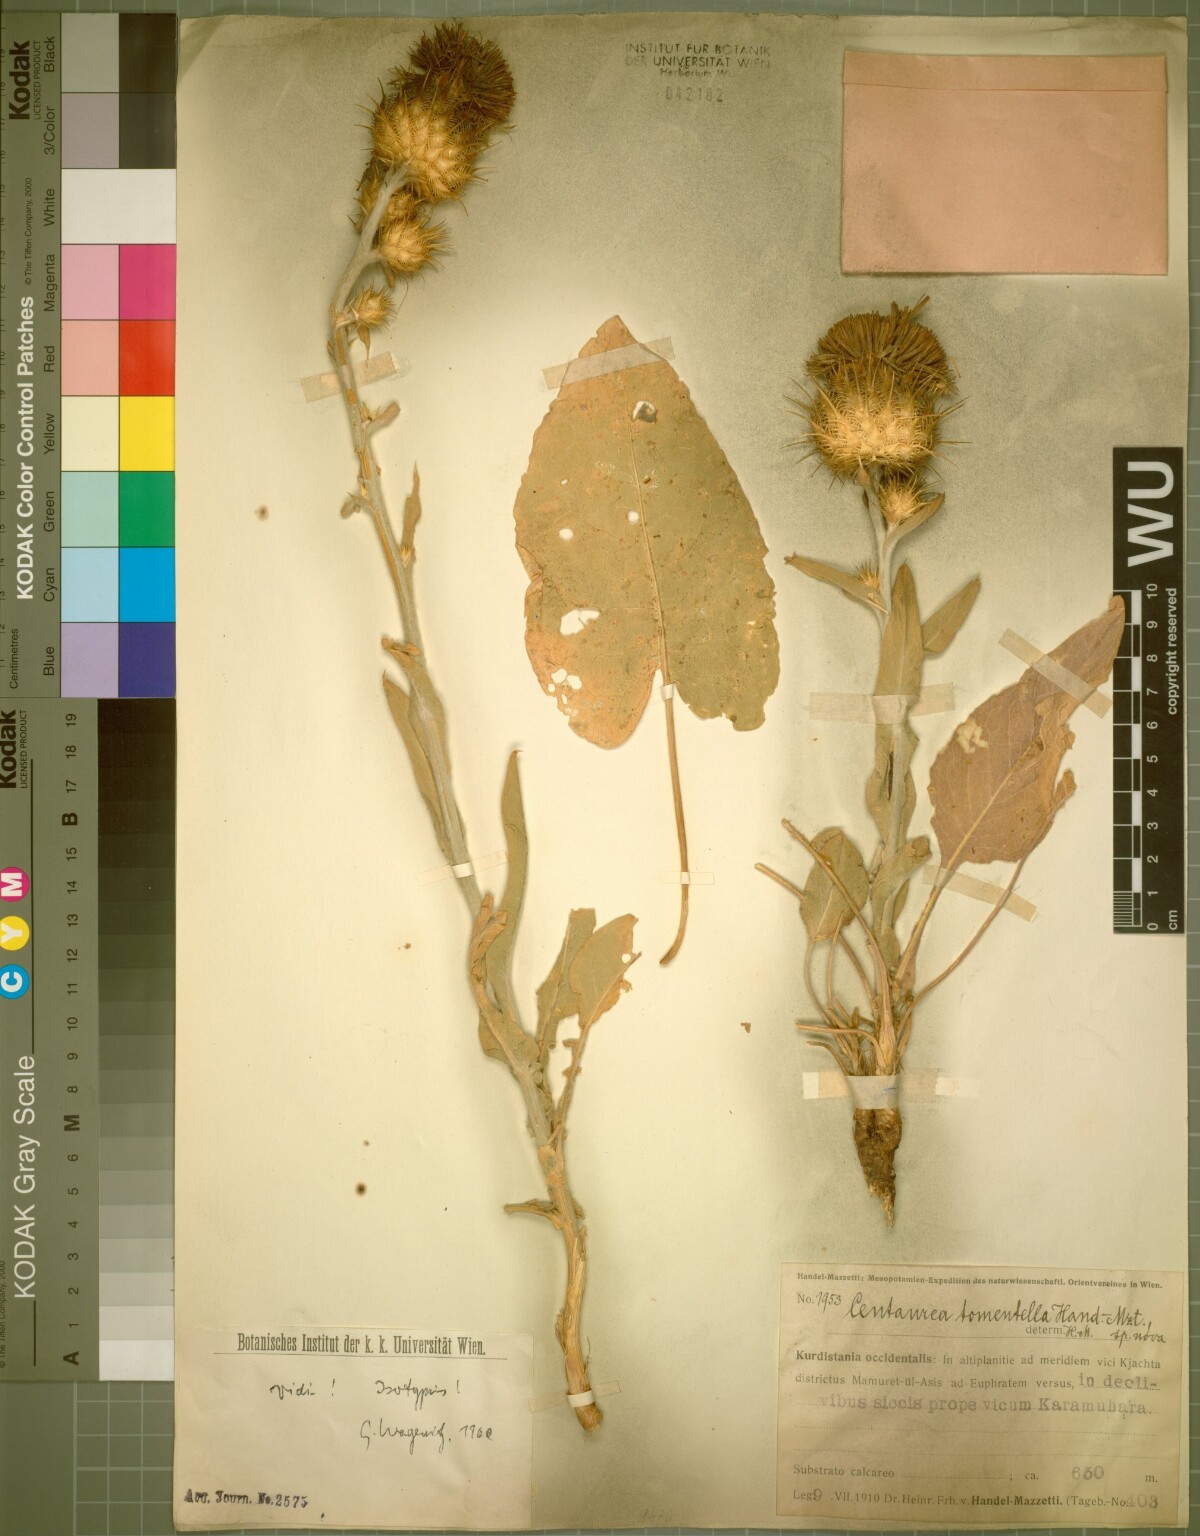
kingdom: Plantae
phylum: Tracheophyta
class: Magnoliopsida
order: Asterales
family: Asteraceae
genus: Centaurea
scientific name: Centaurea tomentella
